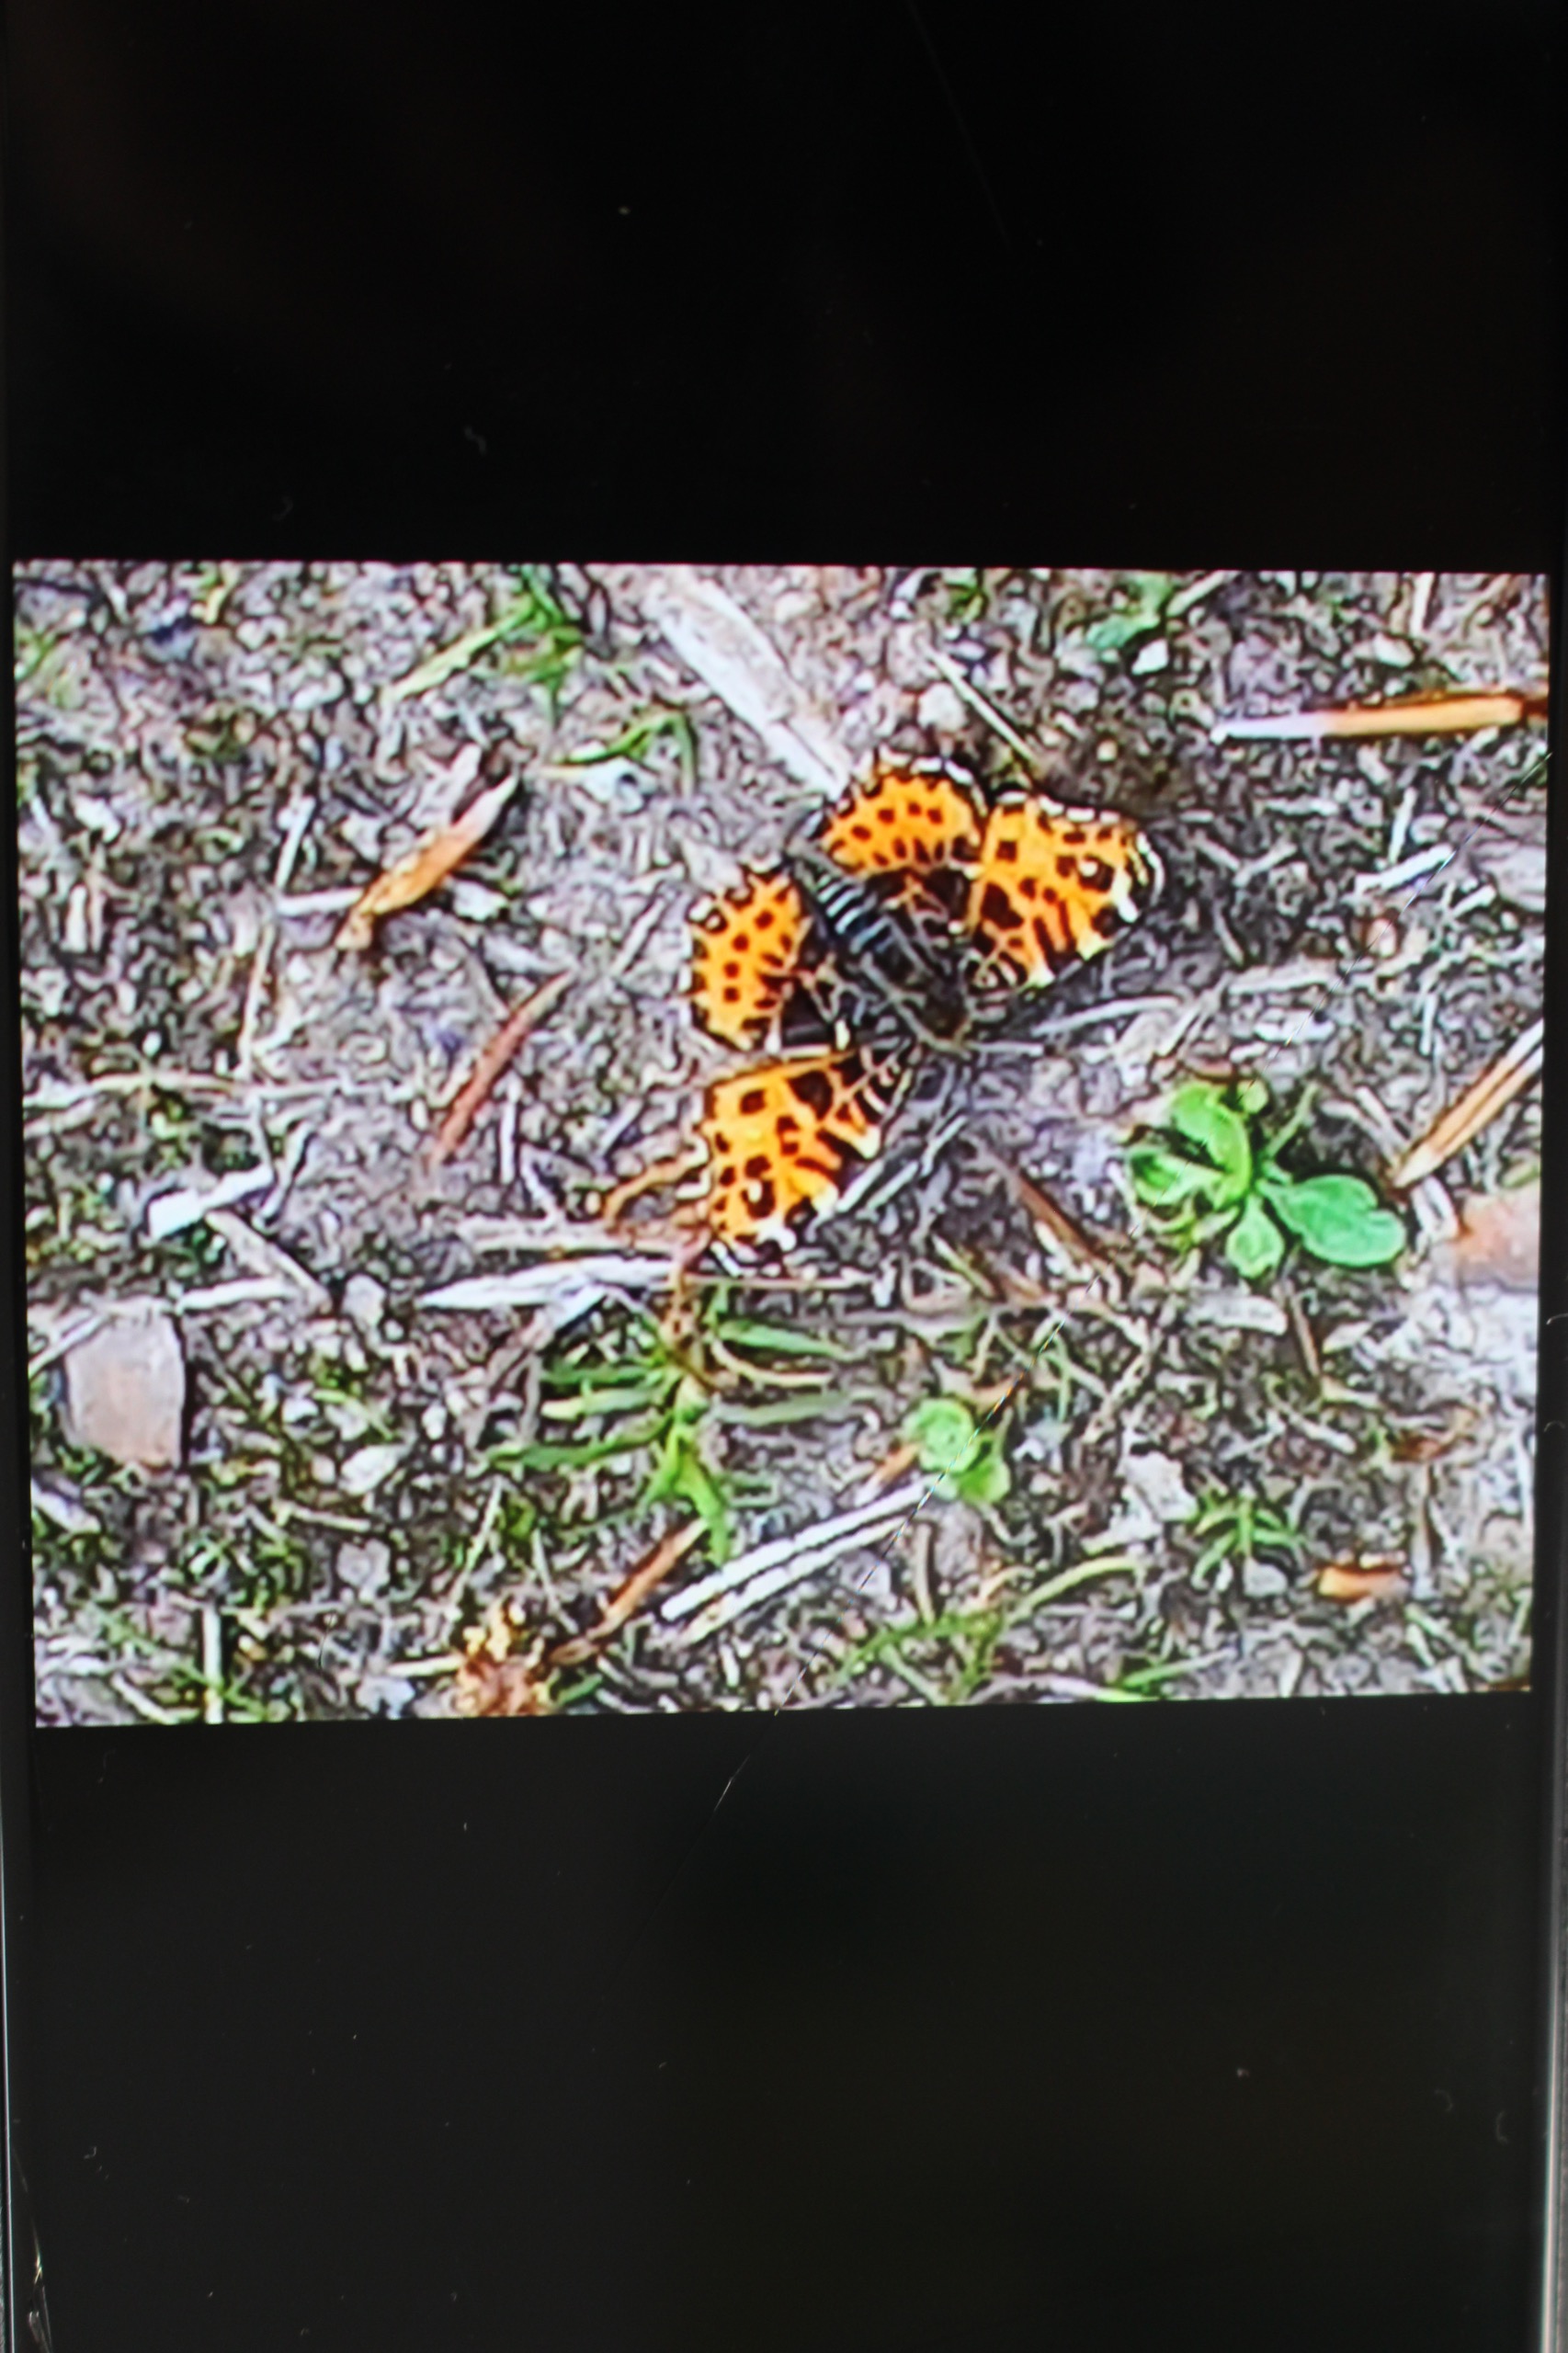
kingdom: Animalia
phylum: Arthropoda
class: Insecta
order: Lepidoptera
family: Nymphalidae
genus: Araschnia
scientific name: Araschnia levana
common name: Nældesommerfugl
